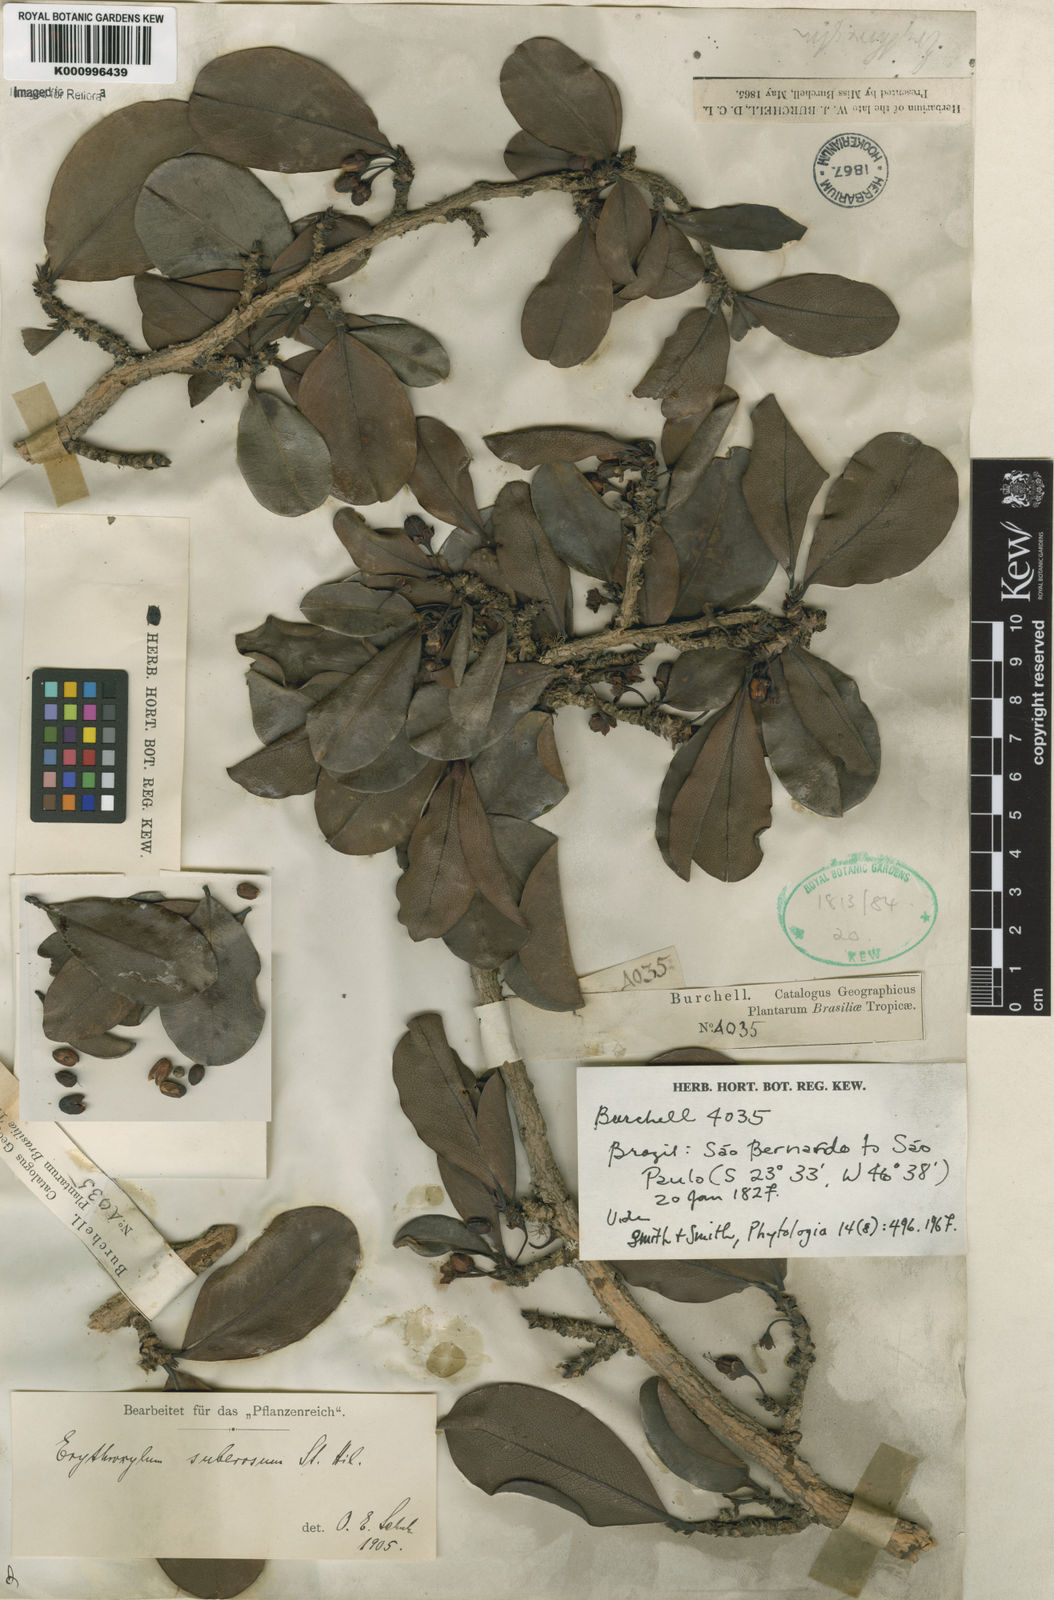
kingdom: Plantae
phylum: Tracheophyta
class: Magnoliopsida
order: Malpighiales
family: Erythroxylaceae
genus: Erythroxylum
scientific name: Erythroxylum suberosum
